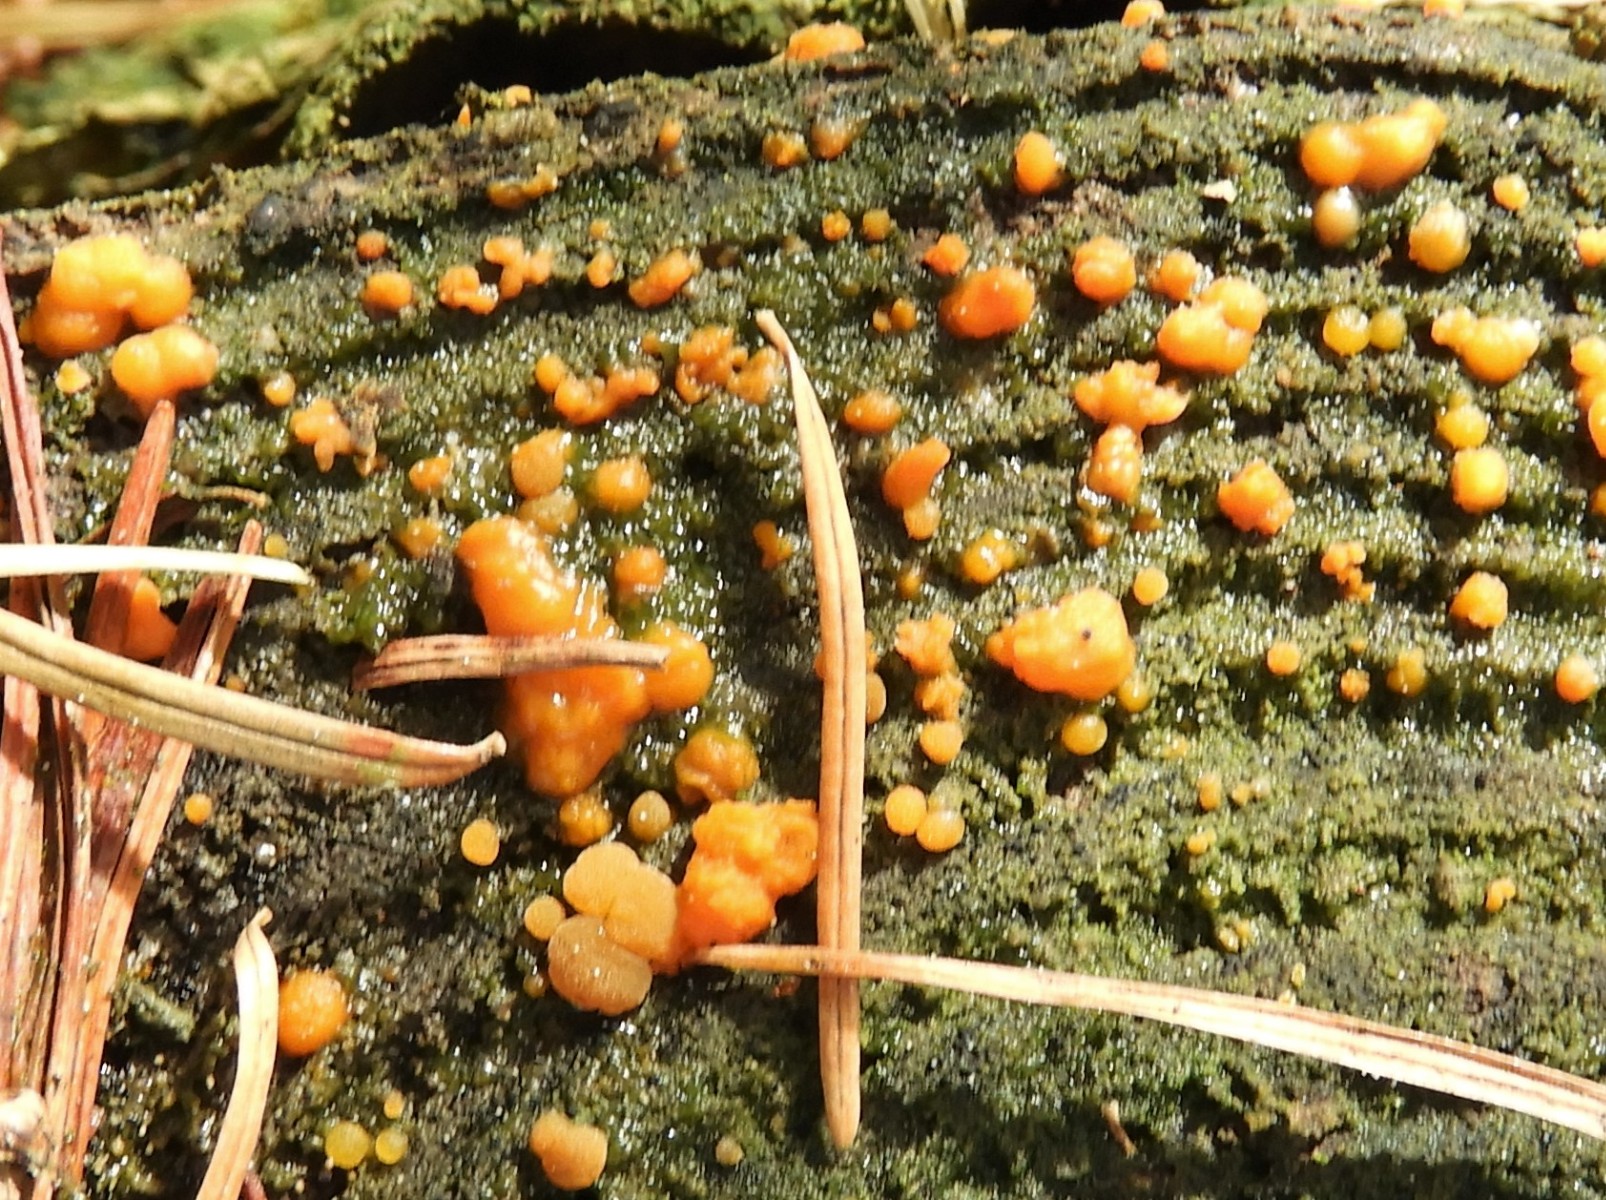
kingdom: Fungi
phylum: Basidiomycota
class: Dacrymycetes
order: Dacrymycetales
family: Dacrymycetaceae
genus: Dacrymyces
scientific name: Dacrymyces stillatus
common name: almindelig tåresvamp
